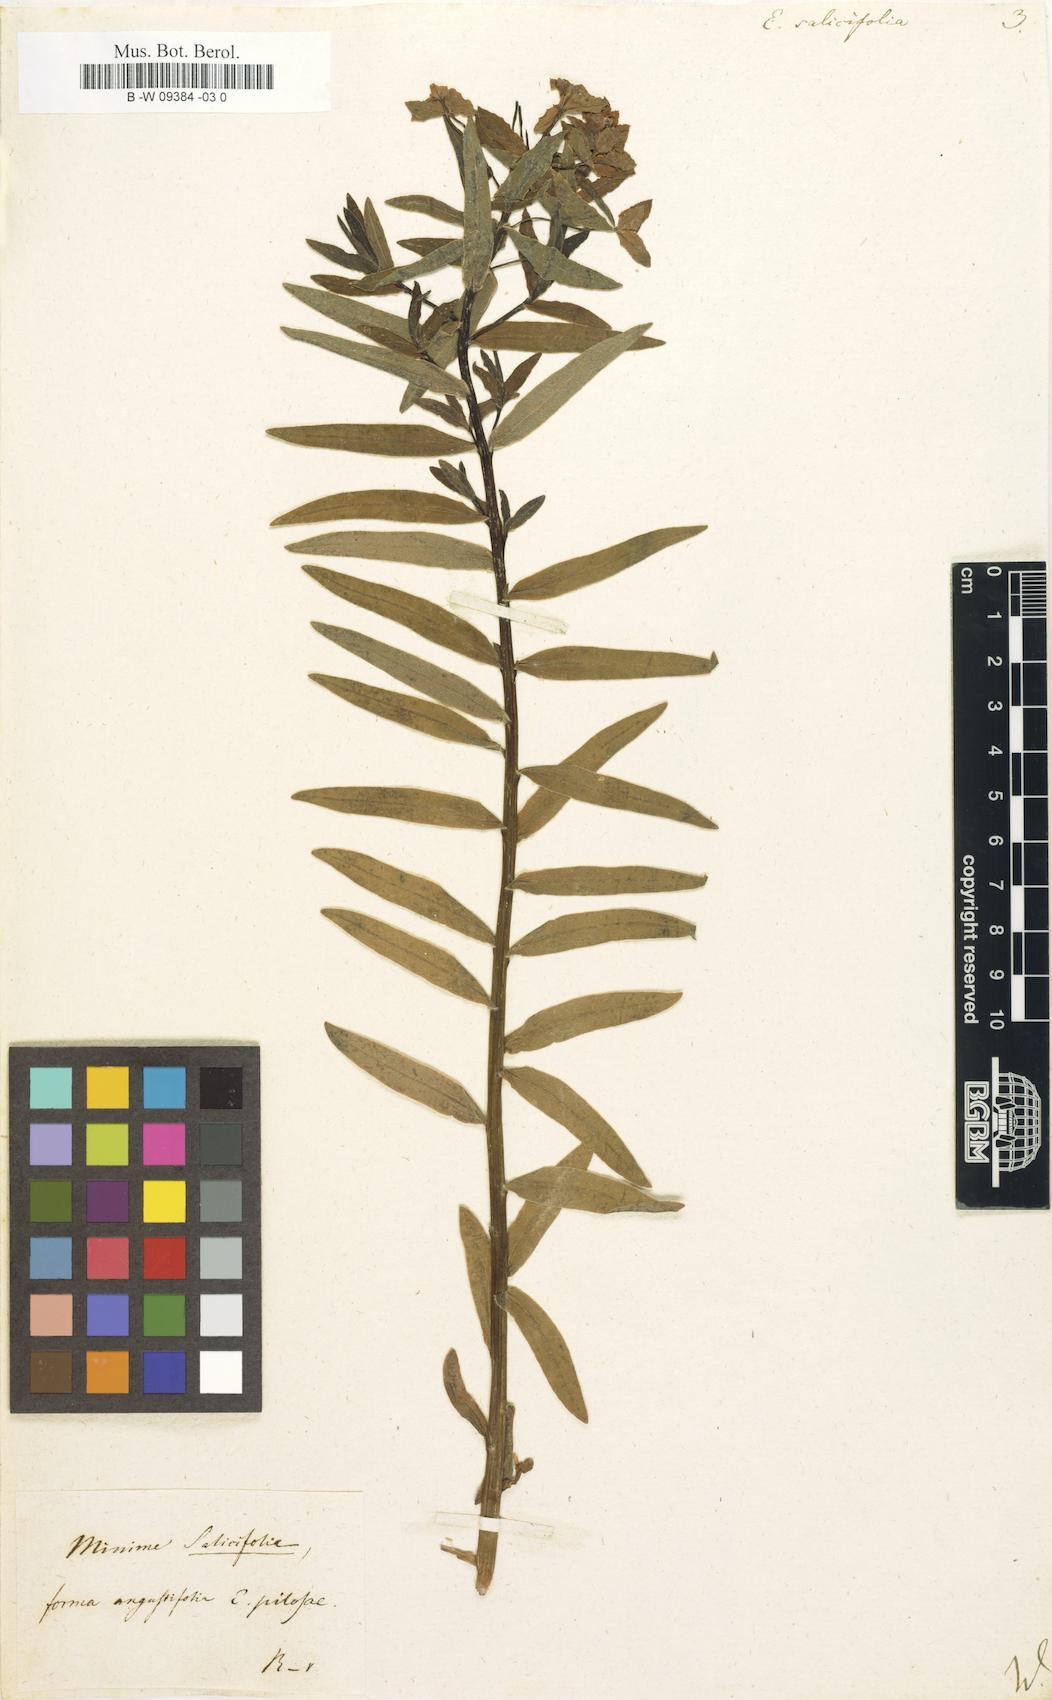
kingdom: Plantae
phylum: Tracheophyta
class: Magnoliopsida
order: Malpighiales
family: Euphorbiaceae
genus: Euphorbia
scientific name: Euphorbia salicifolia
